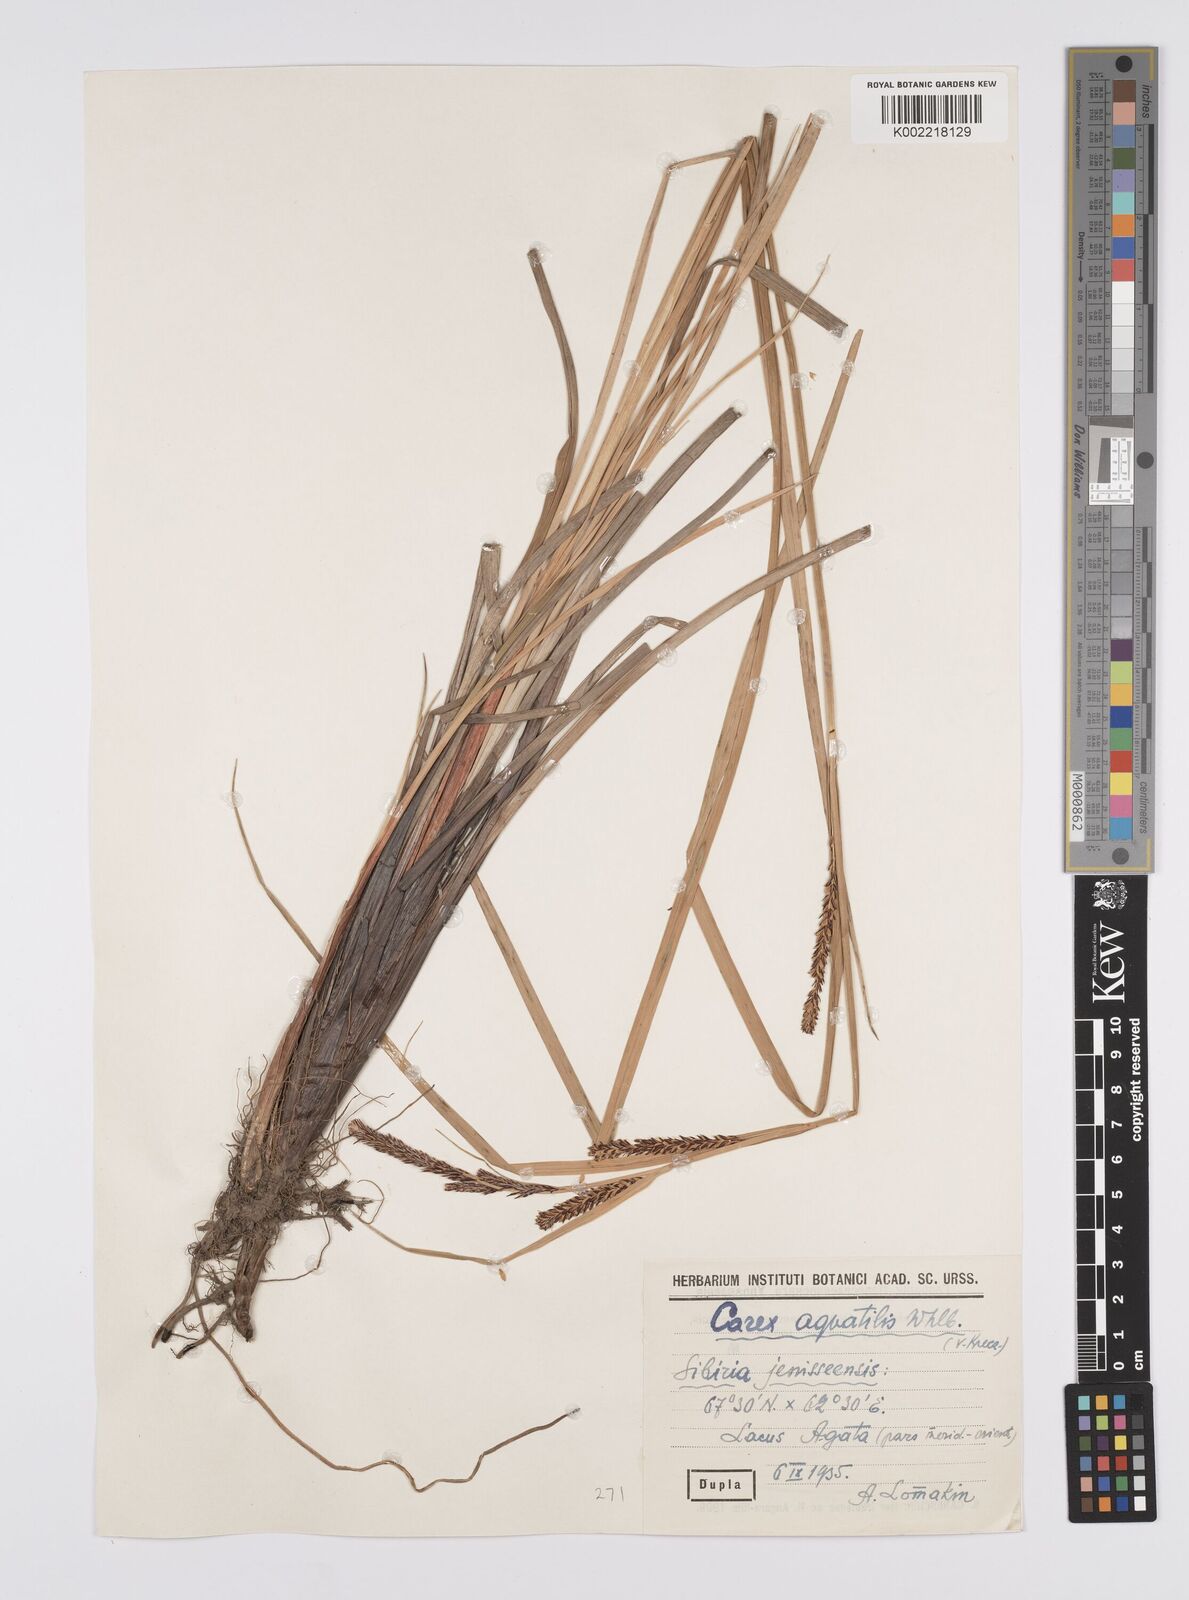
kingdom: Plantae
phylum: Tracheophyta
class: Liliopsida
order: Poales
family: Cyperaceae
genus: Carex
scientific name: Carex aquatilis
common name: Water sedge
